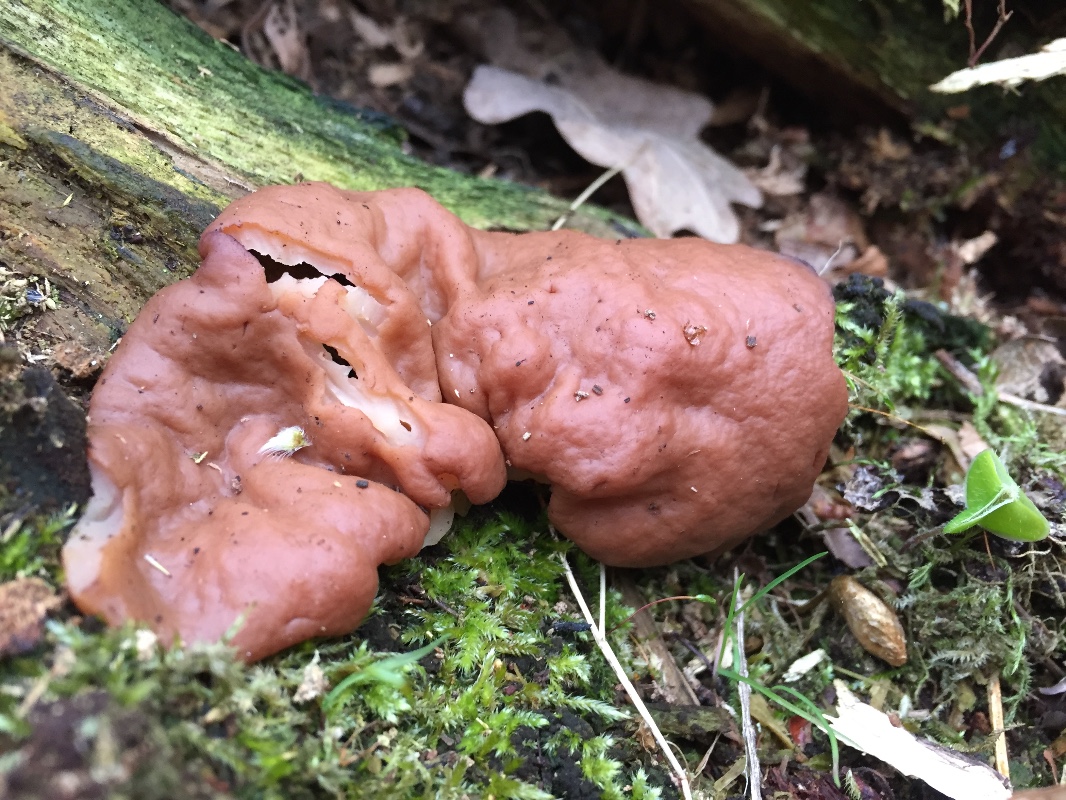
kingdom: Fungi
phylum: Ascomycota
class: Pezizomycetes
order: Pezizales
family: Discinaceae
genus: Discina
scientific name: Discina ancilis
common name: udbredt stenmorkel
